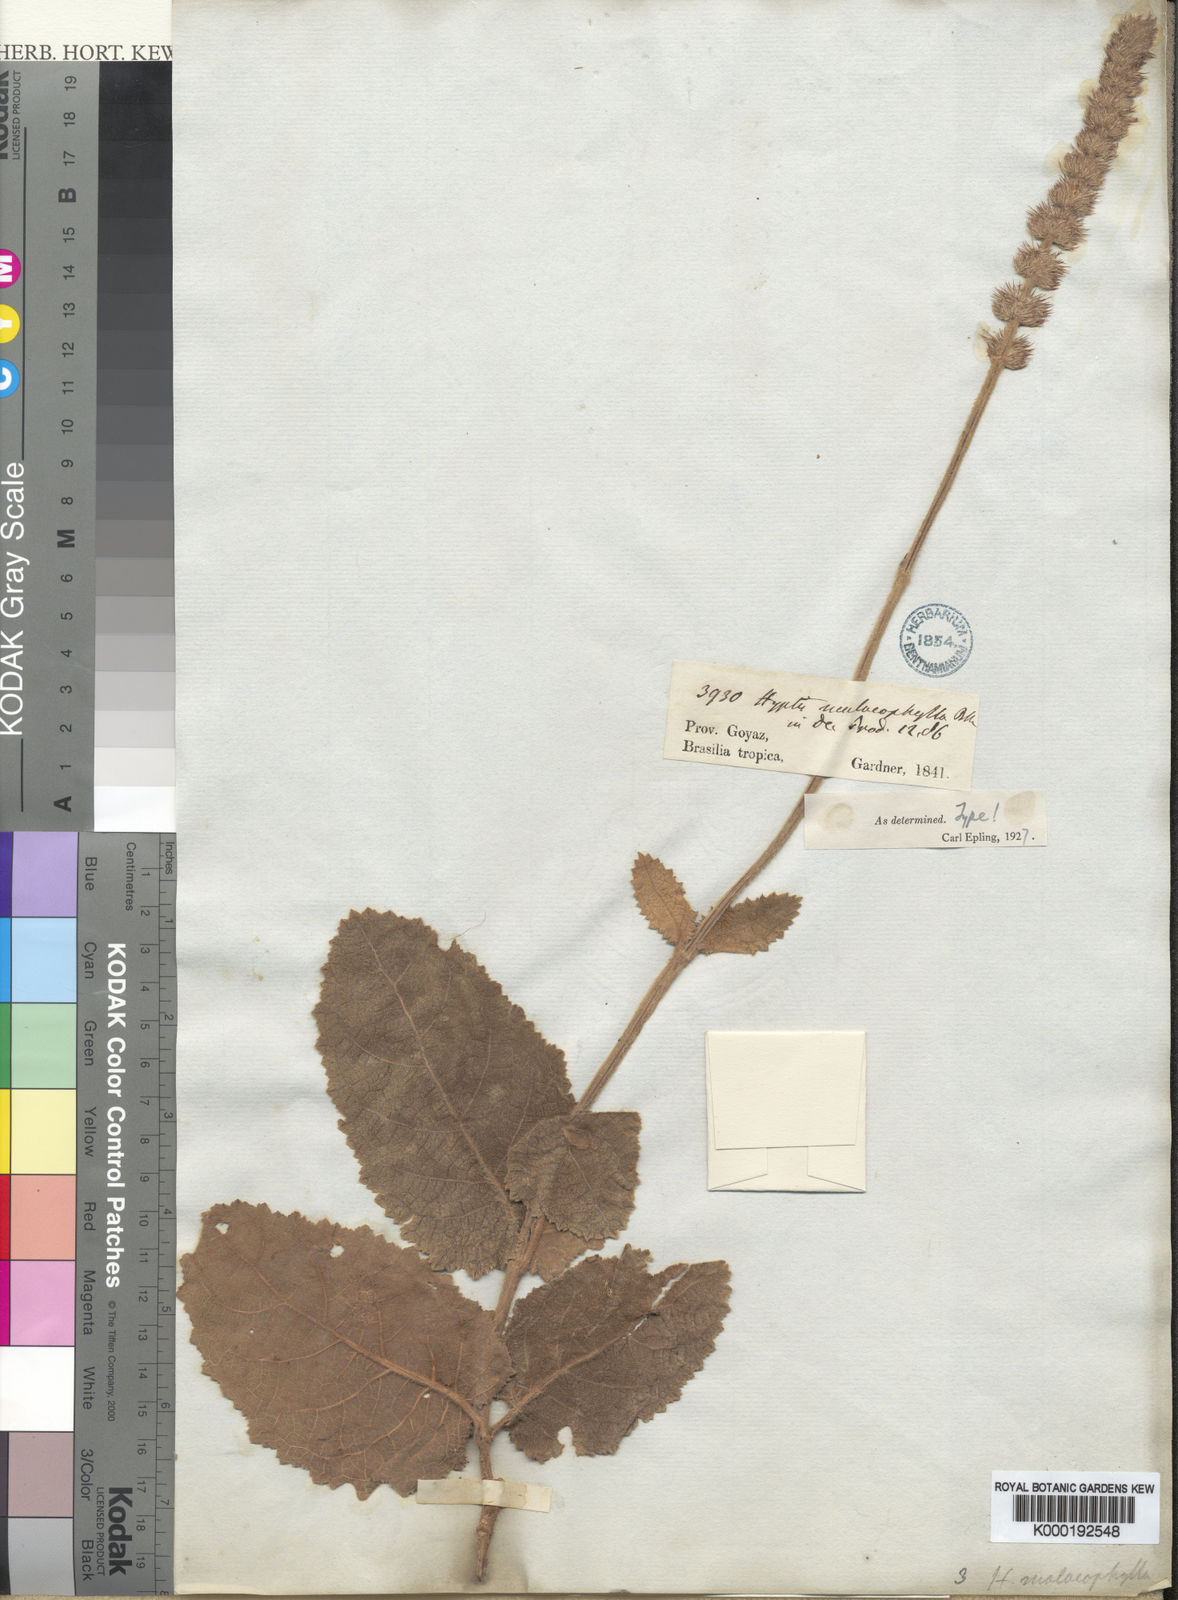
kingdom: Plantae
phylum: Tracheophyta
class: Magnoliopsida
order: Lamiales
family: Lamiaceae
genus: Gymneia
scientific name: Gymneia malacophylla
